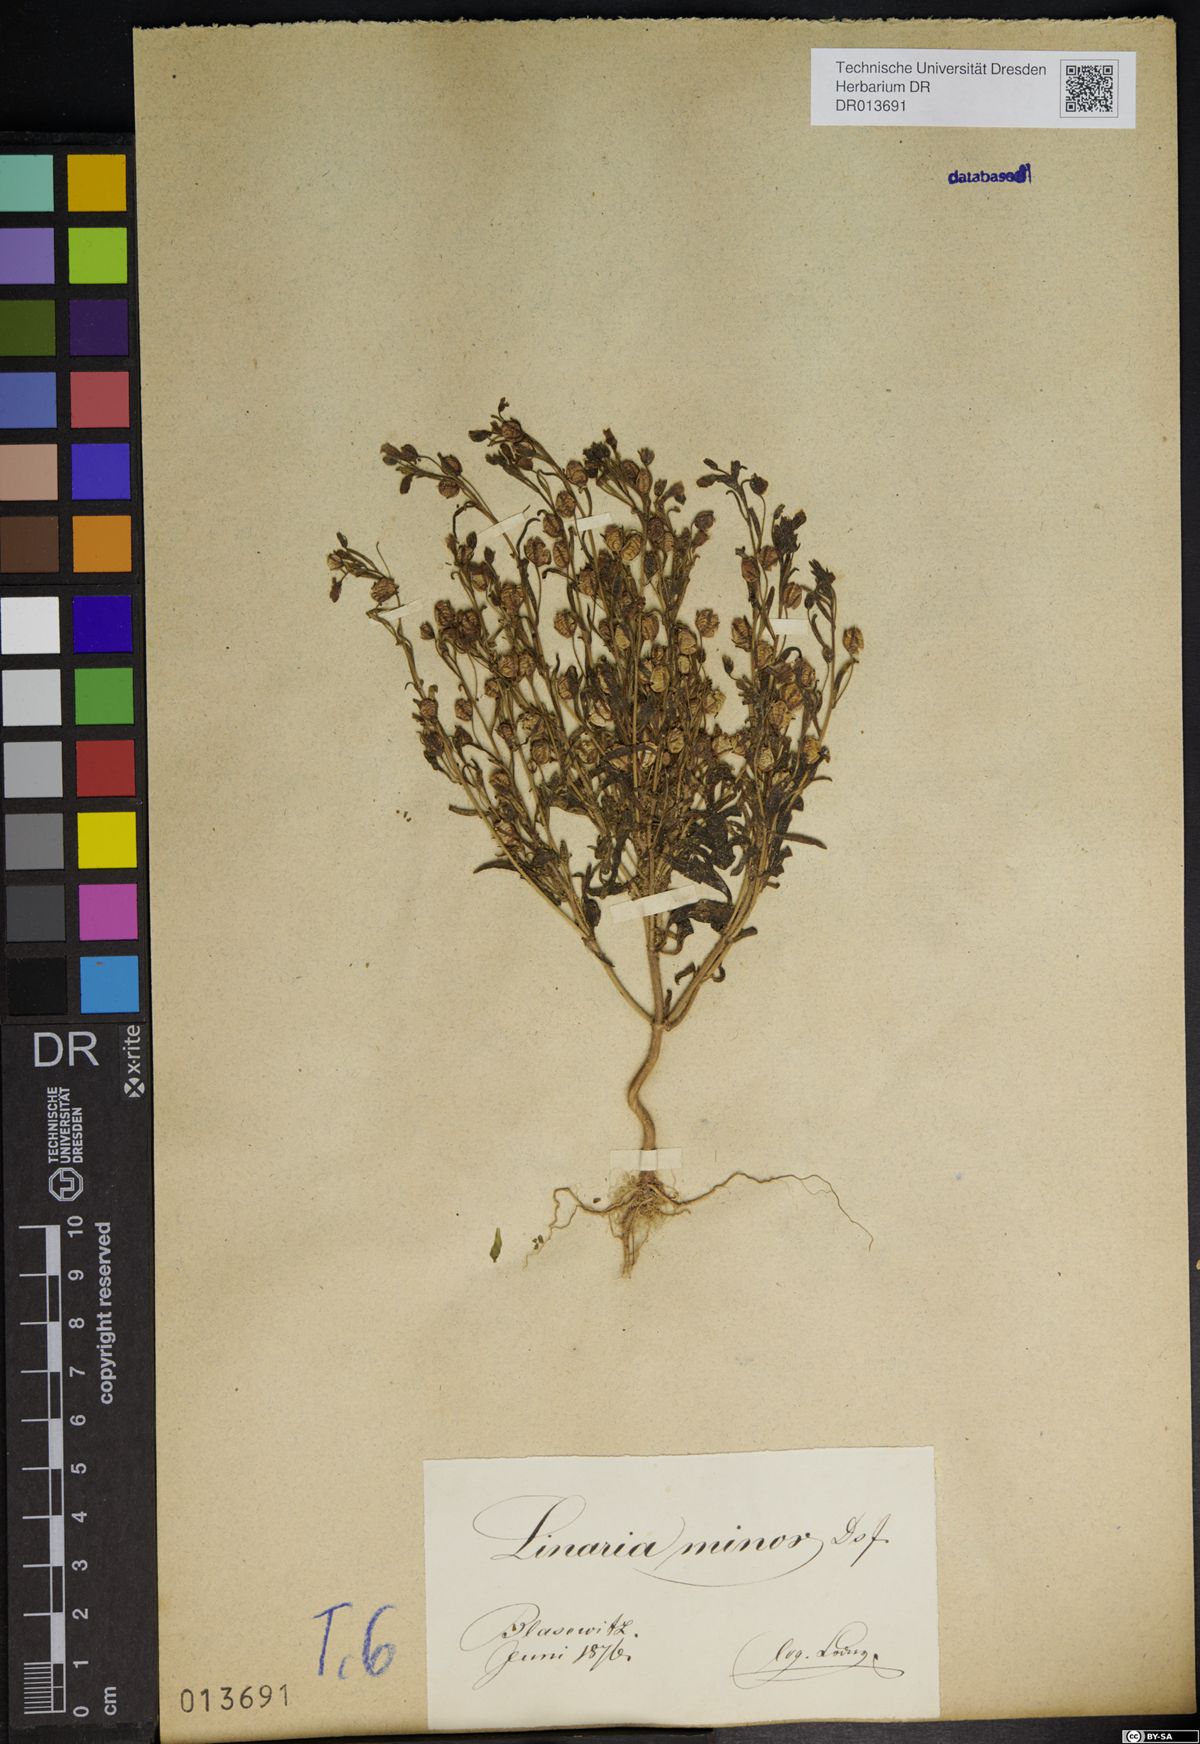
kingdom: Plantae
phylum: Tracheophyta
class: Magnoliopsida
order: Lamiales
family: Plantaginaceae
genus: Chaenorhinum
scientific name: Chaenorhinum minus
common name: Dwarf snapdragon
